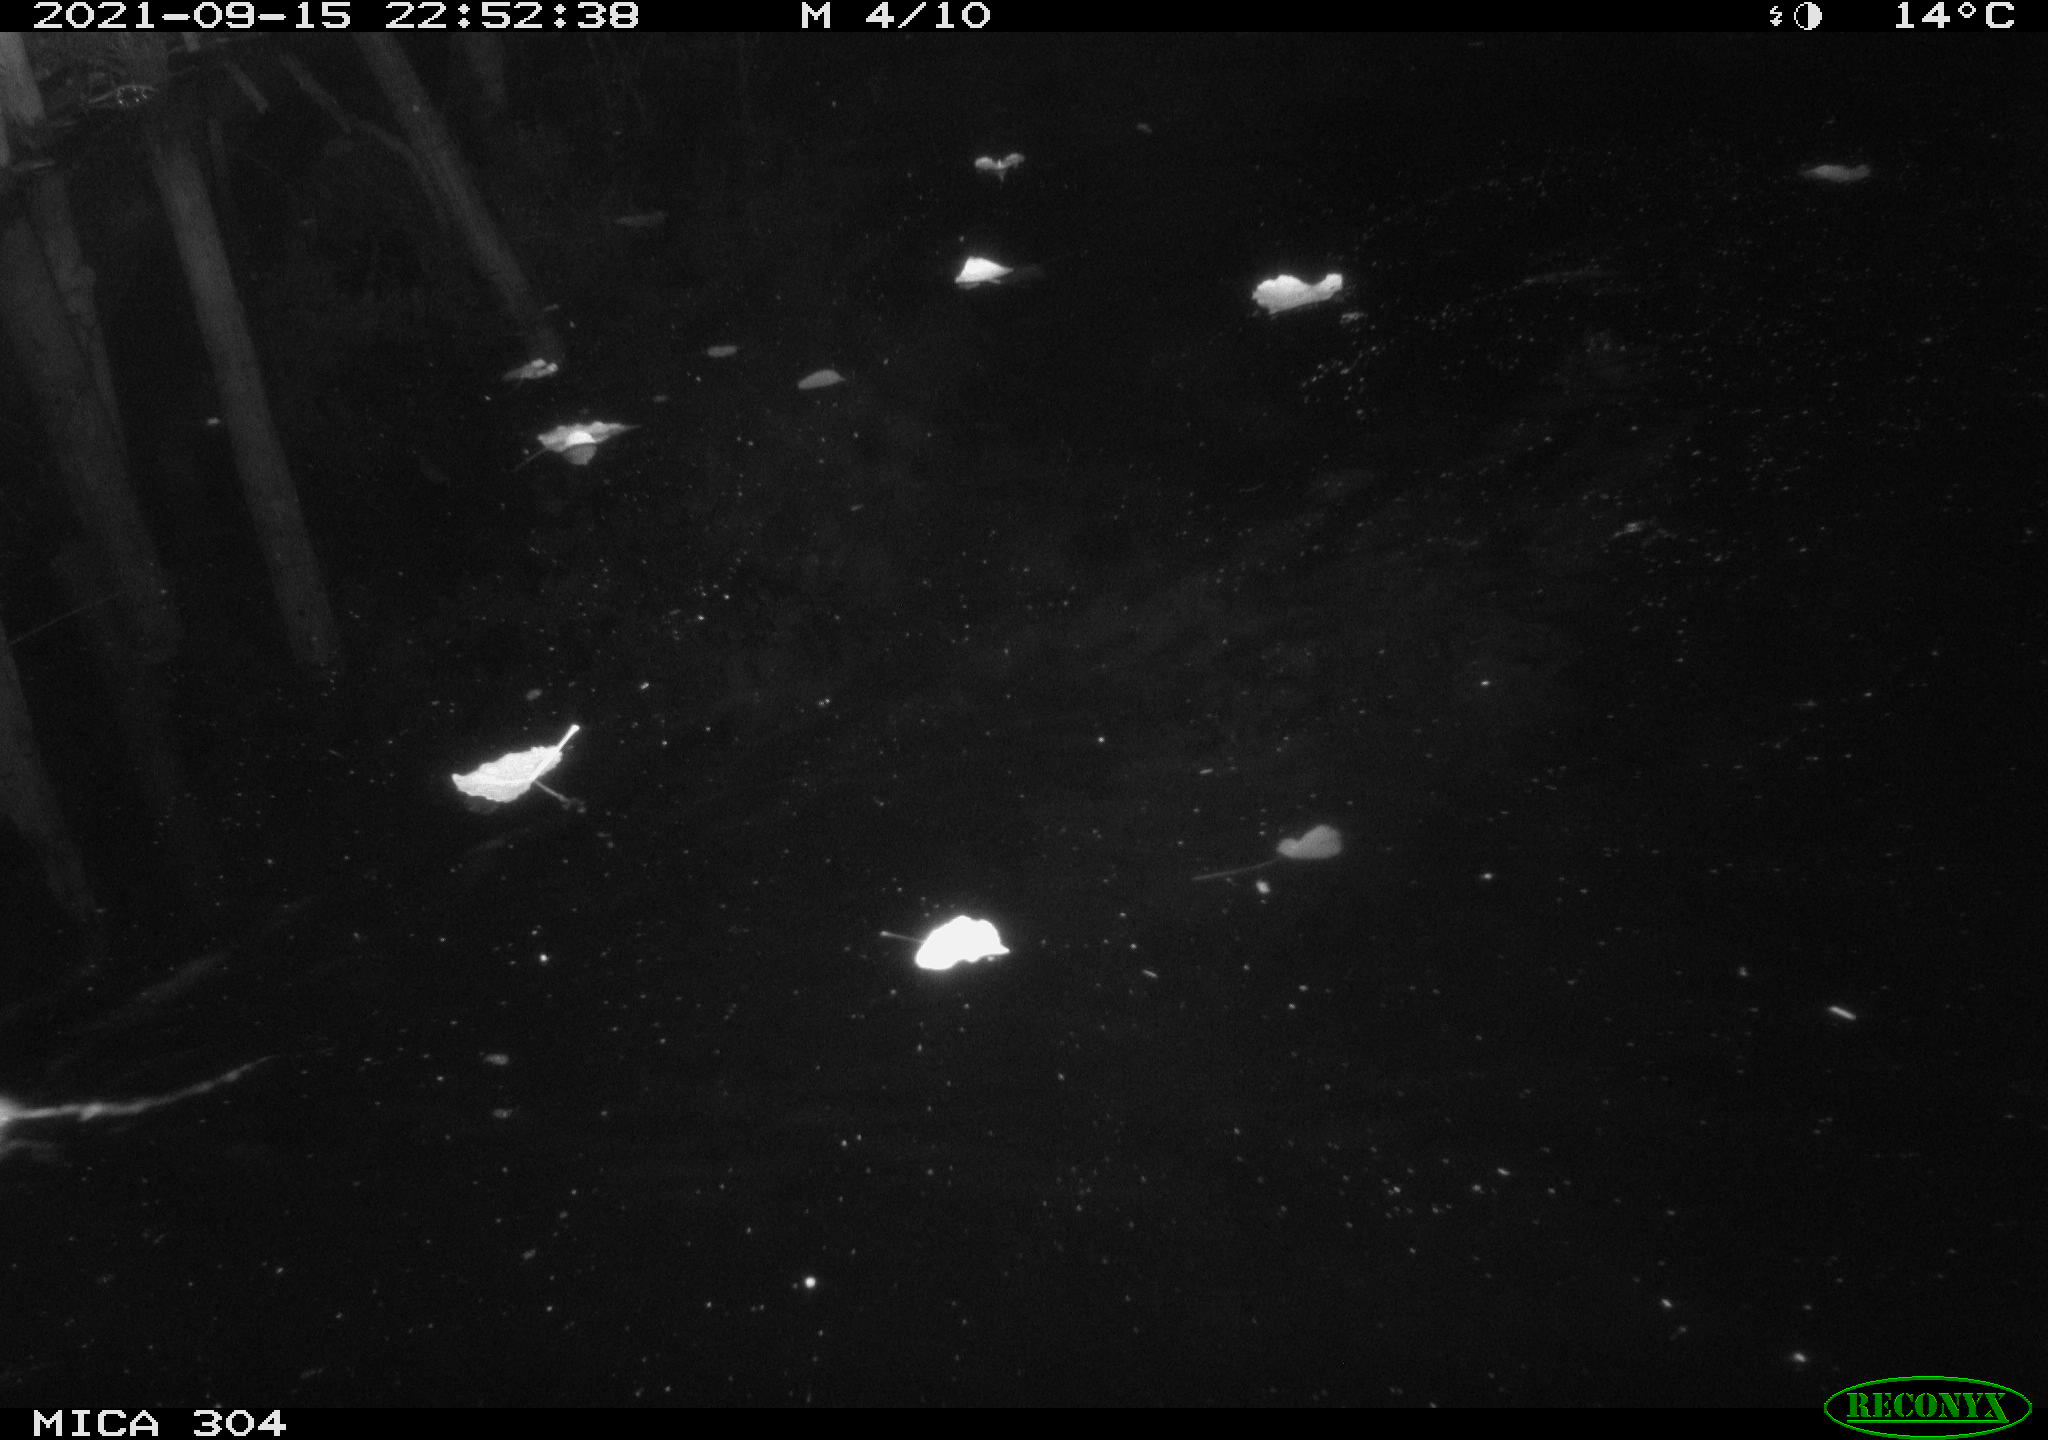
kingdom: Animalia
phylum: Chordata
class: Mammalia
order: Rodentia
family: Muridae
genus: Rattus
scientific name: Rattus norvegicus
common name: Brown rat
